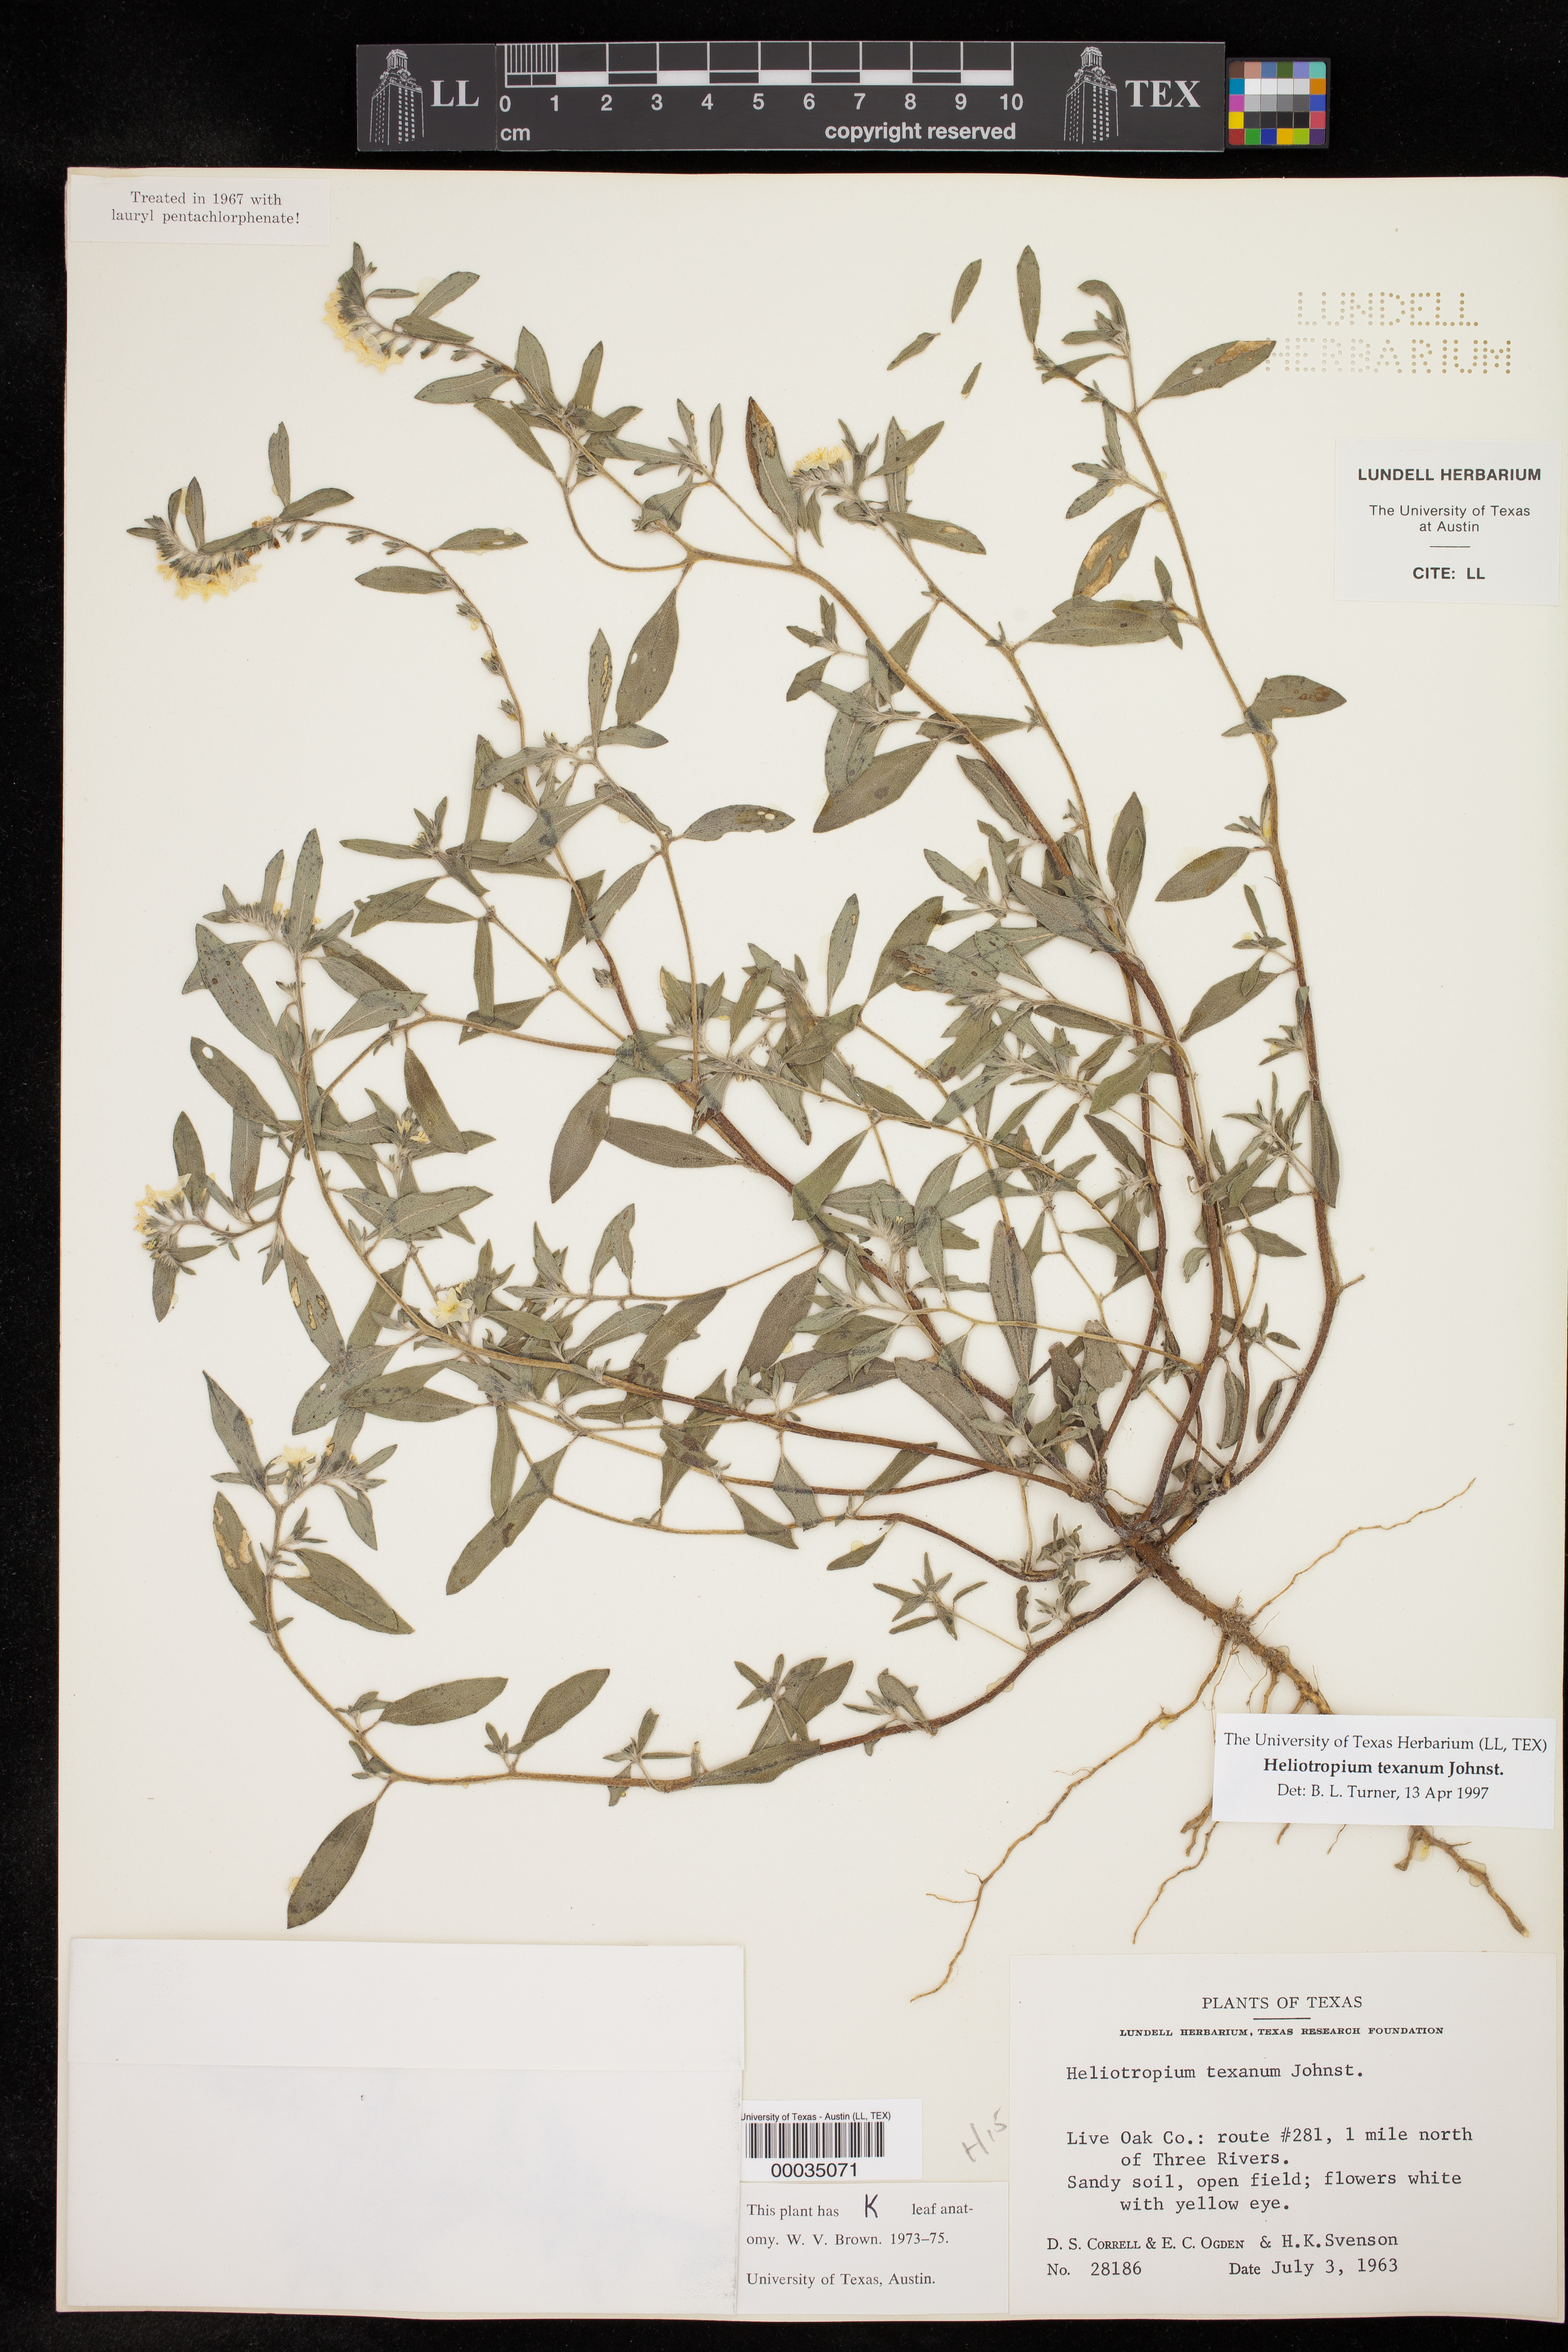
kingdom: Plantae
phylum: Tracheophyta
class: Magnoliopsida
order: Boraginales
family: Heliotropiaceae
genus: Euploca
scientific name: Euploca fruticosa
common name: Key west heliotrope
